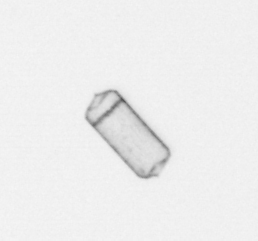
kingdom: Chromista
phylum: Ochrophyta
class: Bacillariophyceae
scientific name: Bacillariophyceae
